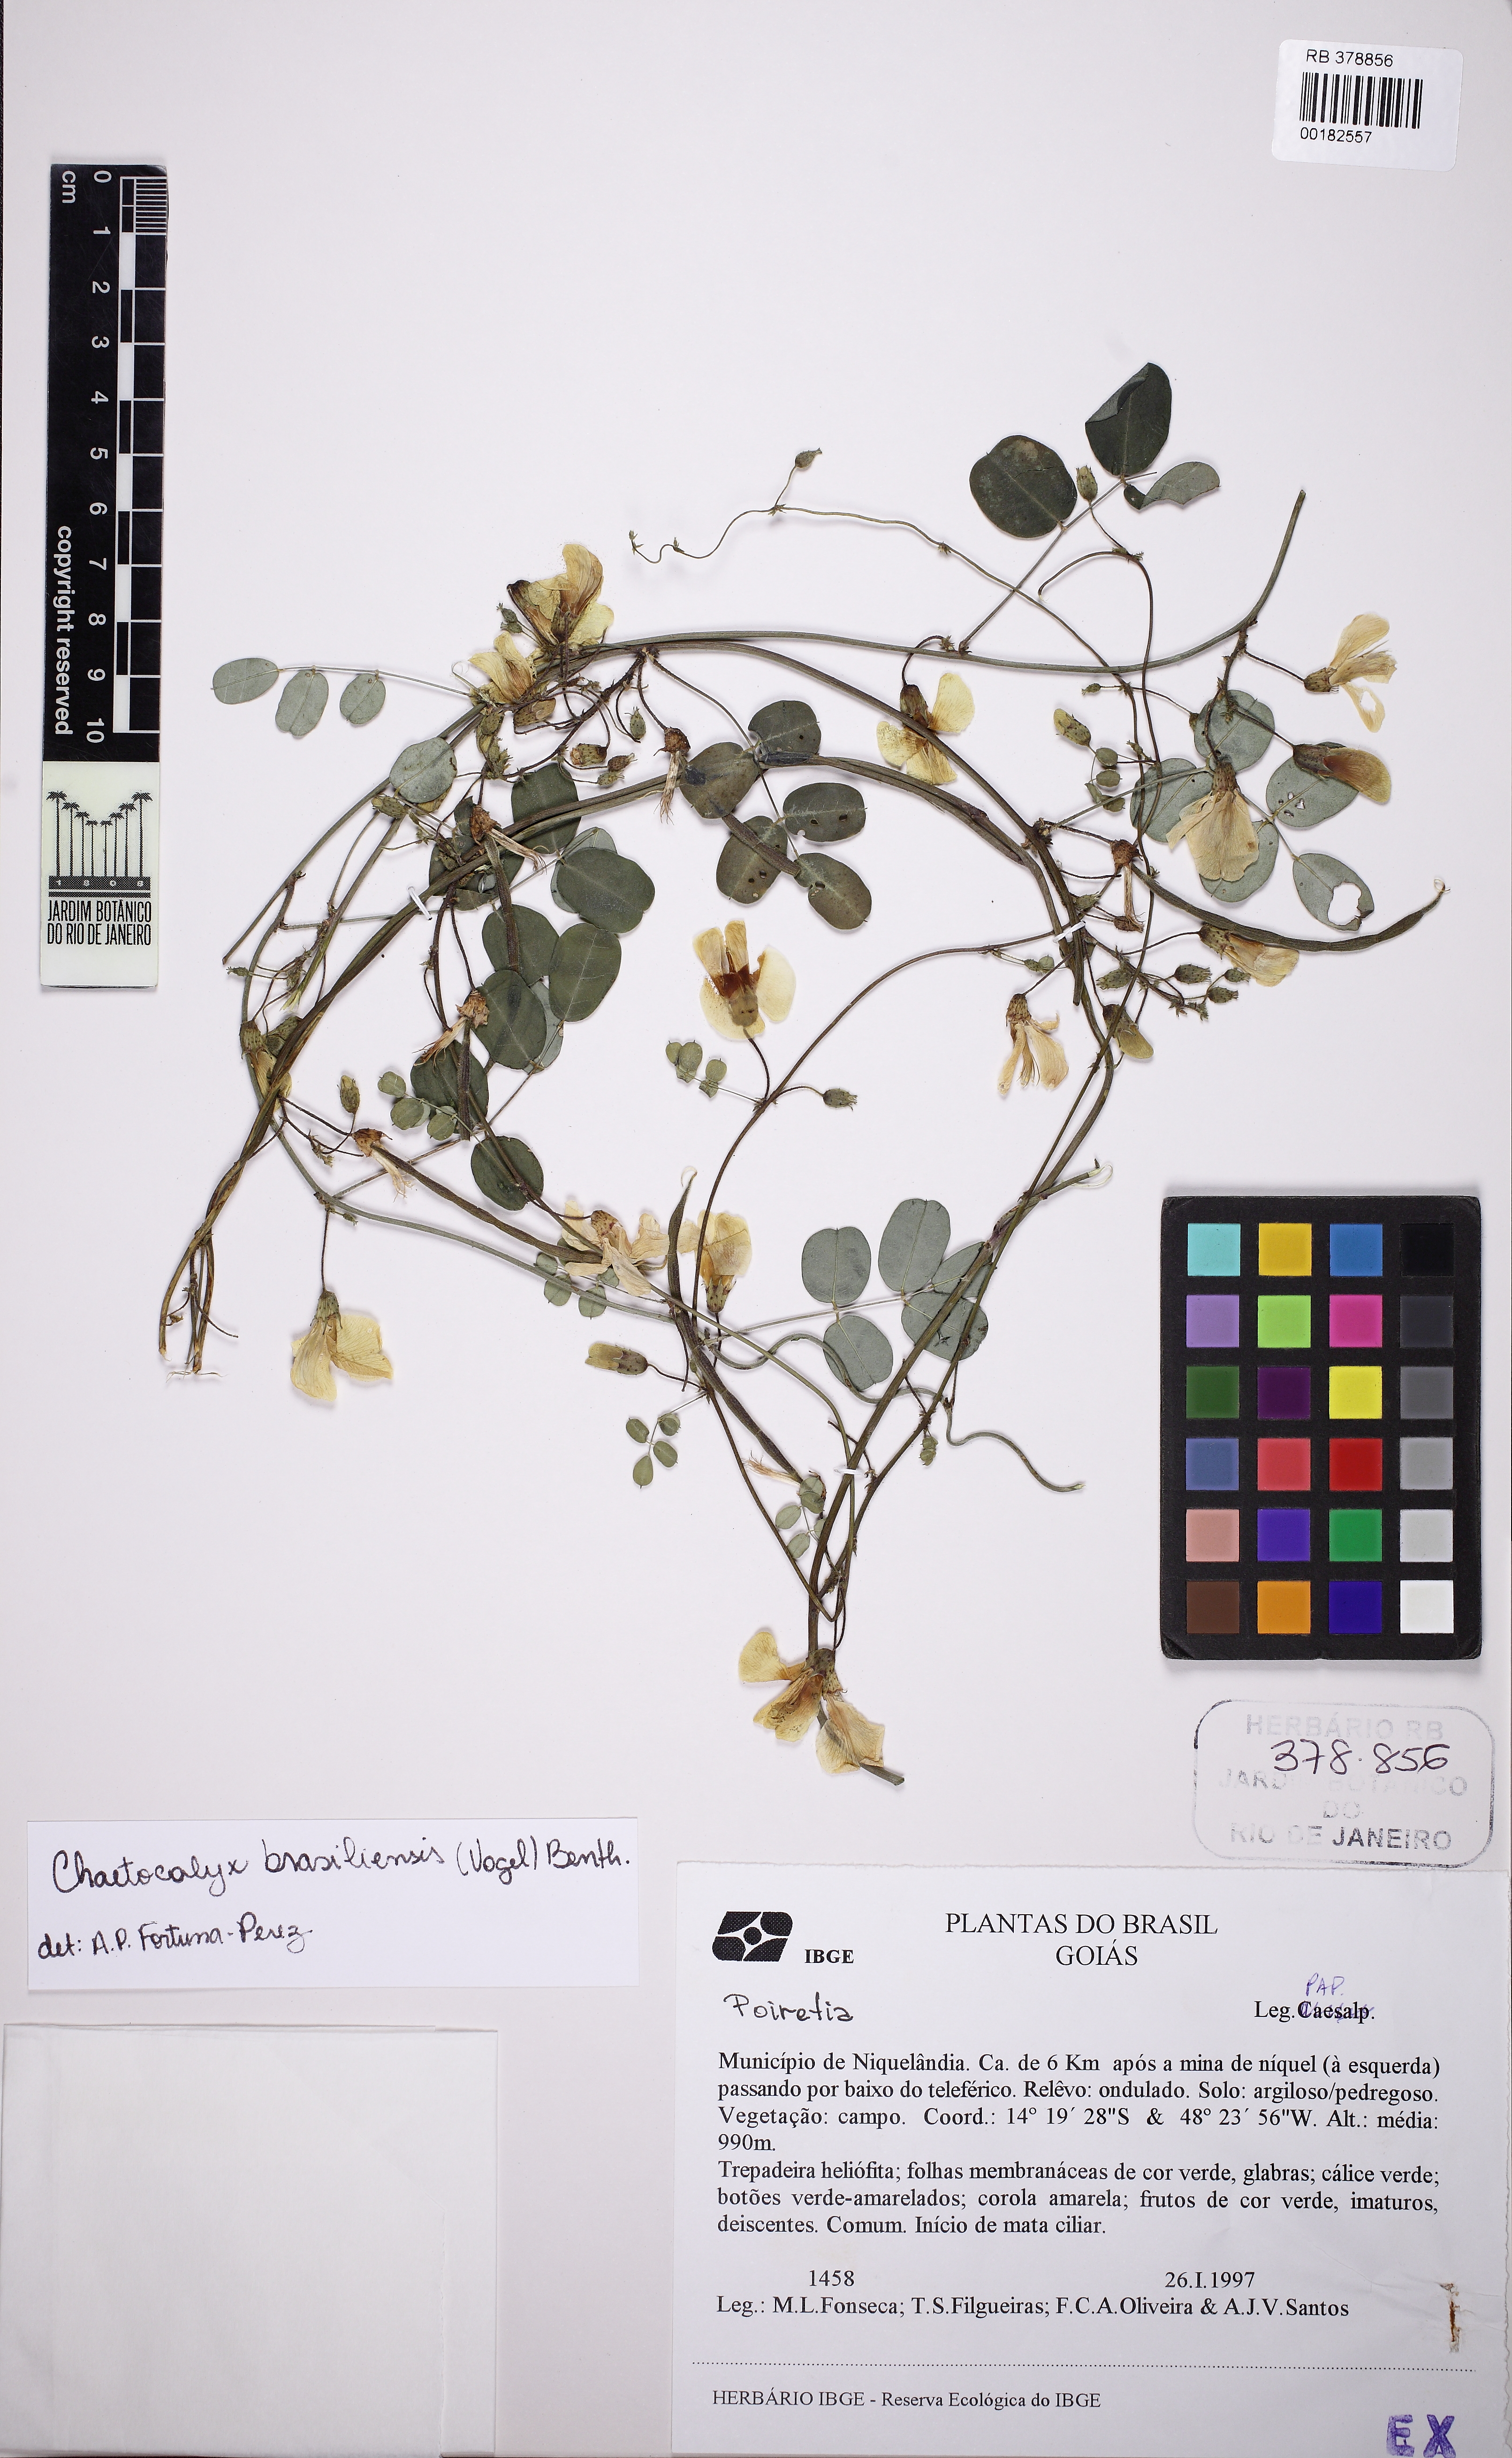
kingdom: Plantae
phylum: Tracheophyta
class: Magnoliopsida
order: Fabales
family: Fabaceae
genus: Nissolia
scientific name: Nissolia brasiliensis
